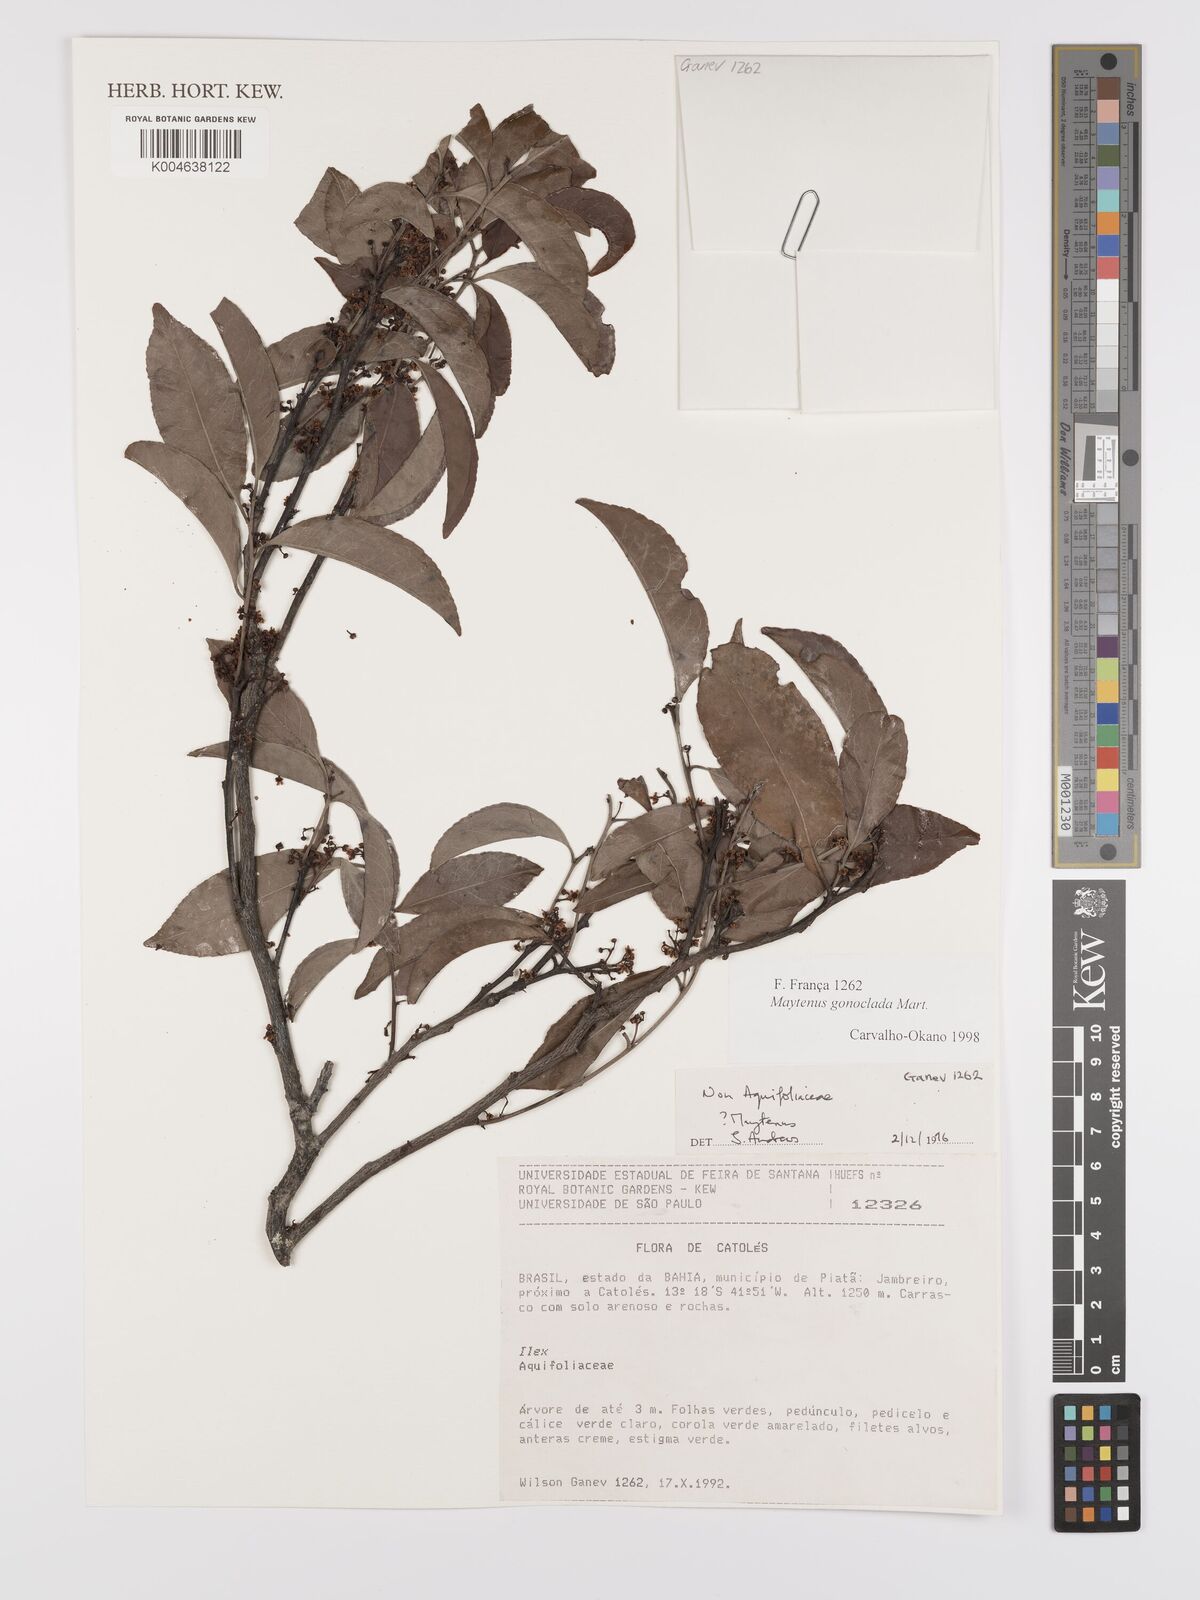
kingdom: Plantae
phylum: Tracheophyta
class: Magnoliopsida
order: Celastrales
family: Celastraceae
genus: Monteverdia
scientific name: Monteverdia gonoclada
